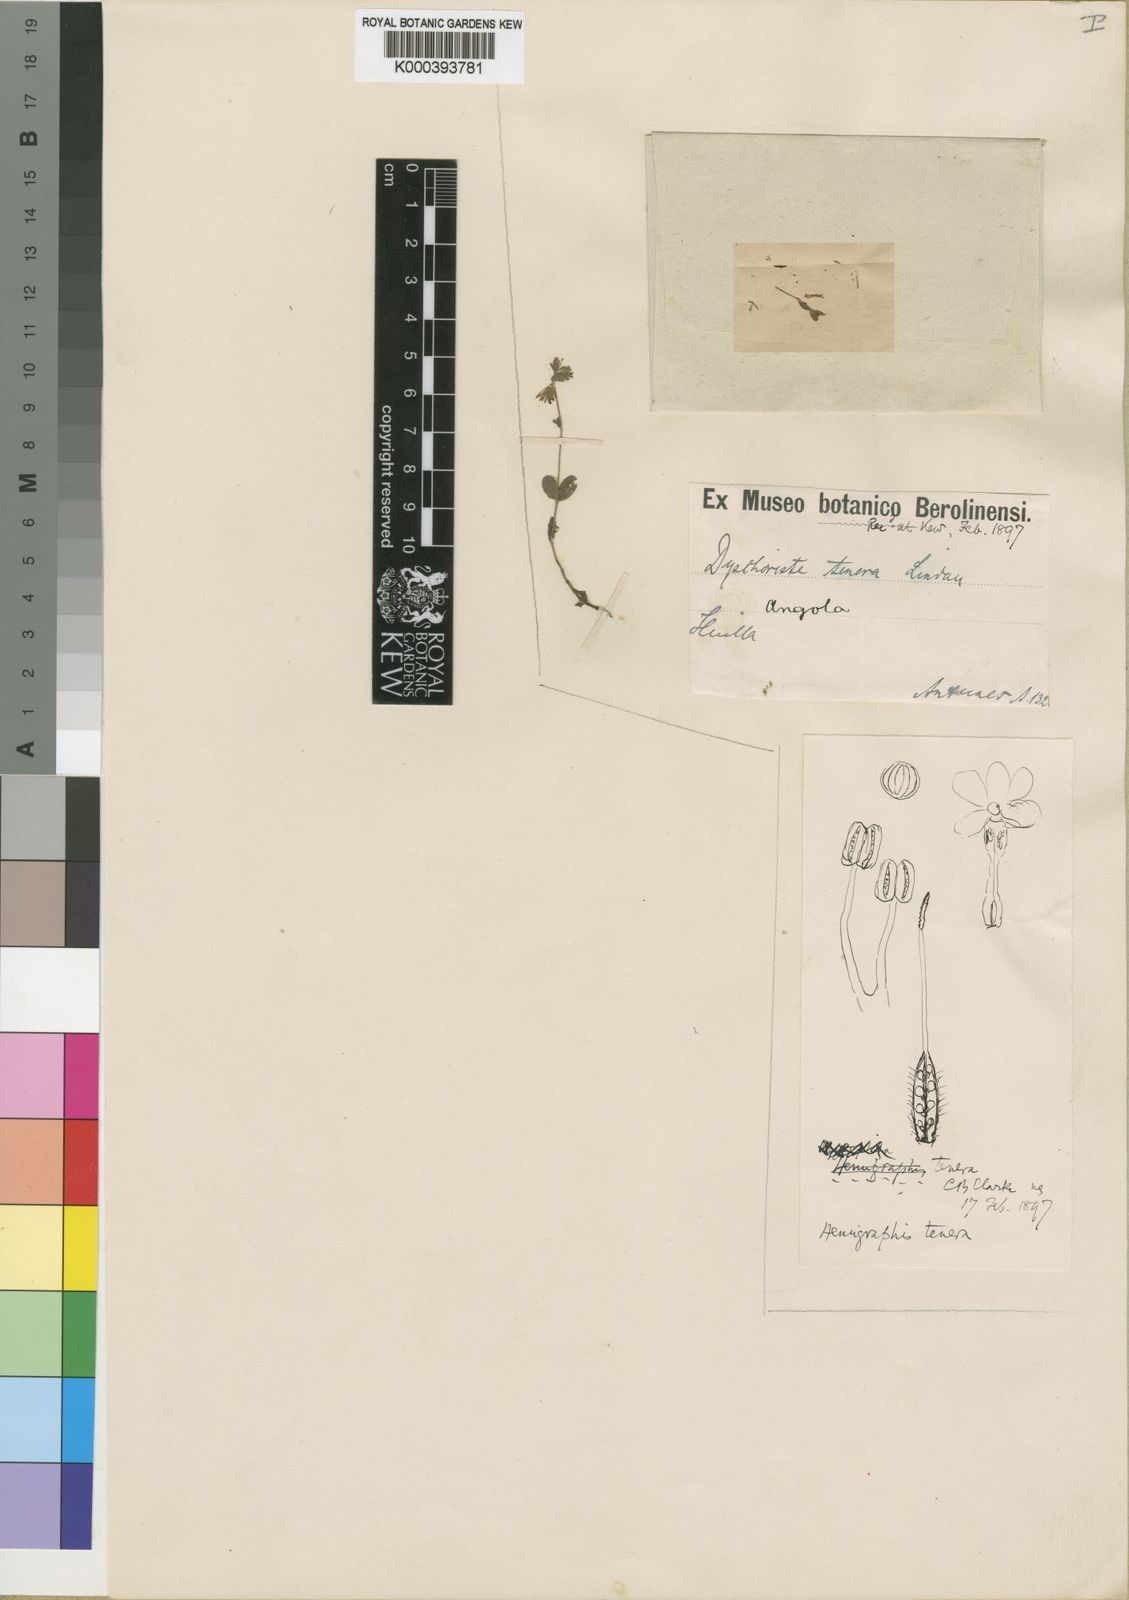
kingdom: Plantae
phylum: Tracheophyta
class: Magnoliopsida
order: Lamiales
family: Acanthaceae
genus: Hygrophila
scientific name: Hygrophila abyssinica
